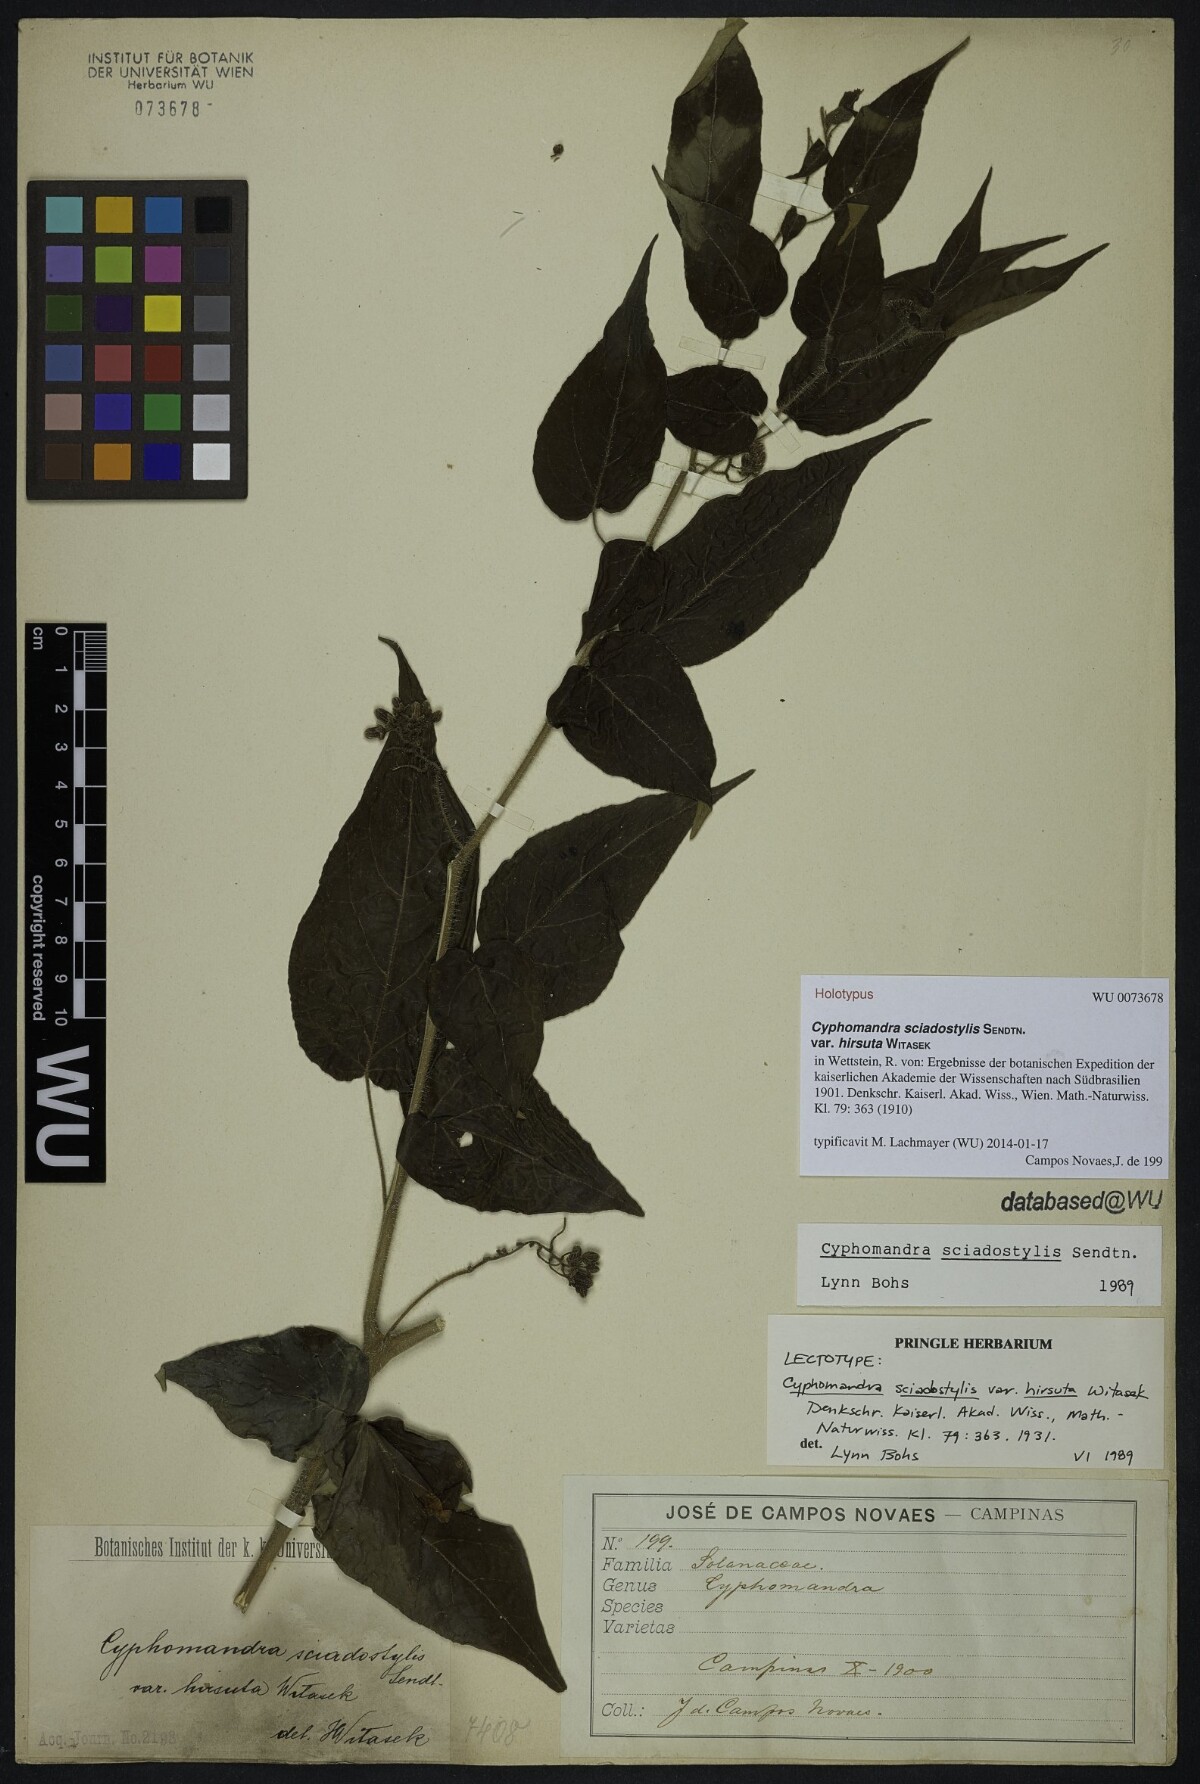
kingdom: Plantae
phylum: Tracheophyta
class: Magnoliopsida
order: Solanales
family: Solanaceae
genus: Solanum
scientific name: Solanum sciadostylis
